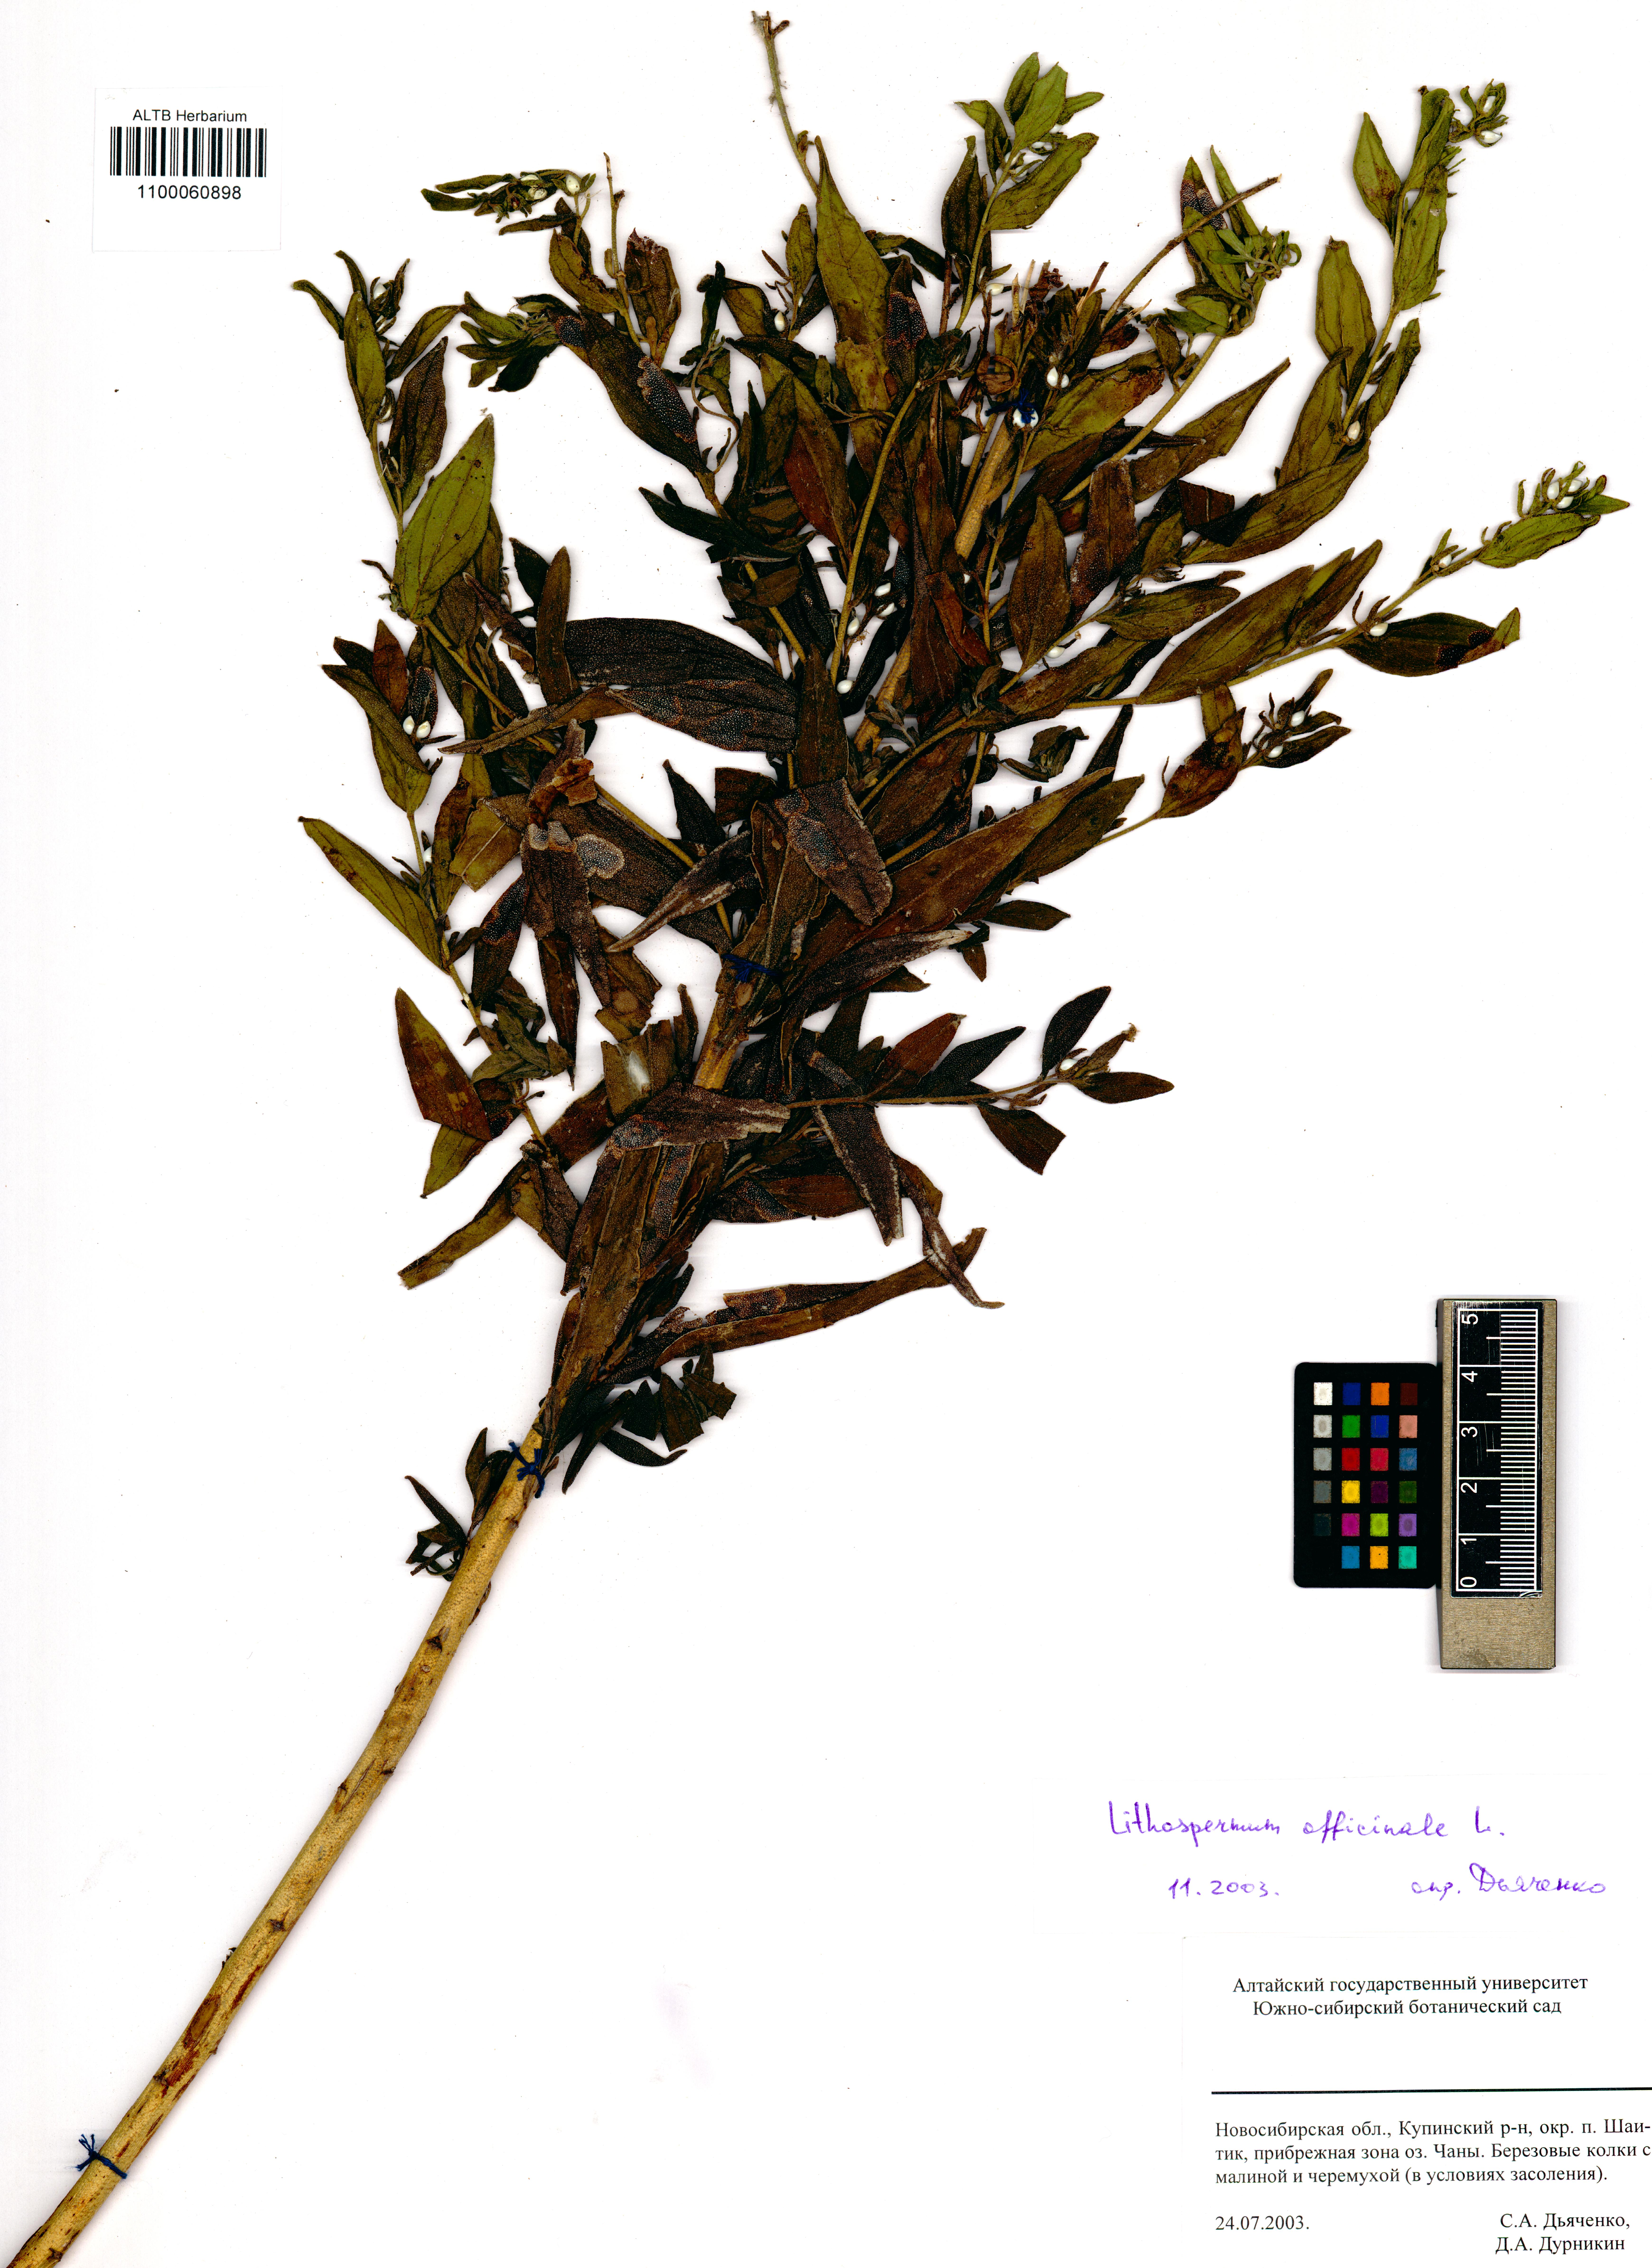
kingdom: Plantae
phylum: Tracheophyta
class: Magnoliopsida
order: Boraginales
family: Boraginaceae
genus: Lithospermum
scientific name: Lithospermum officinale
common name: Common gromwell
